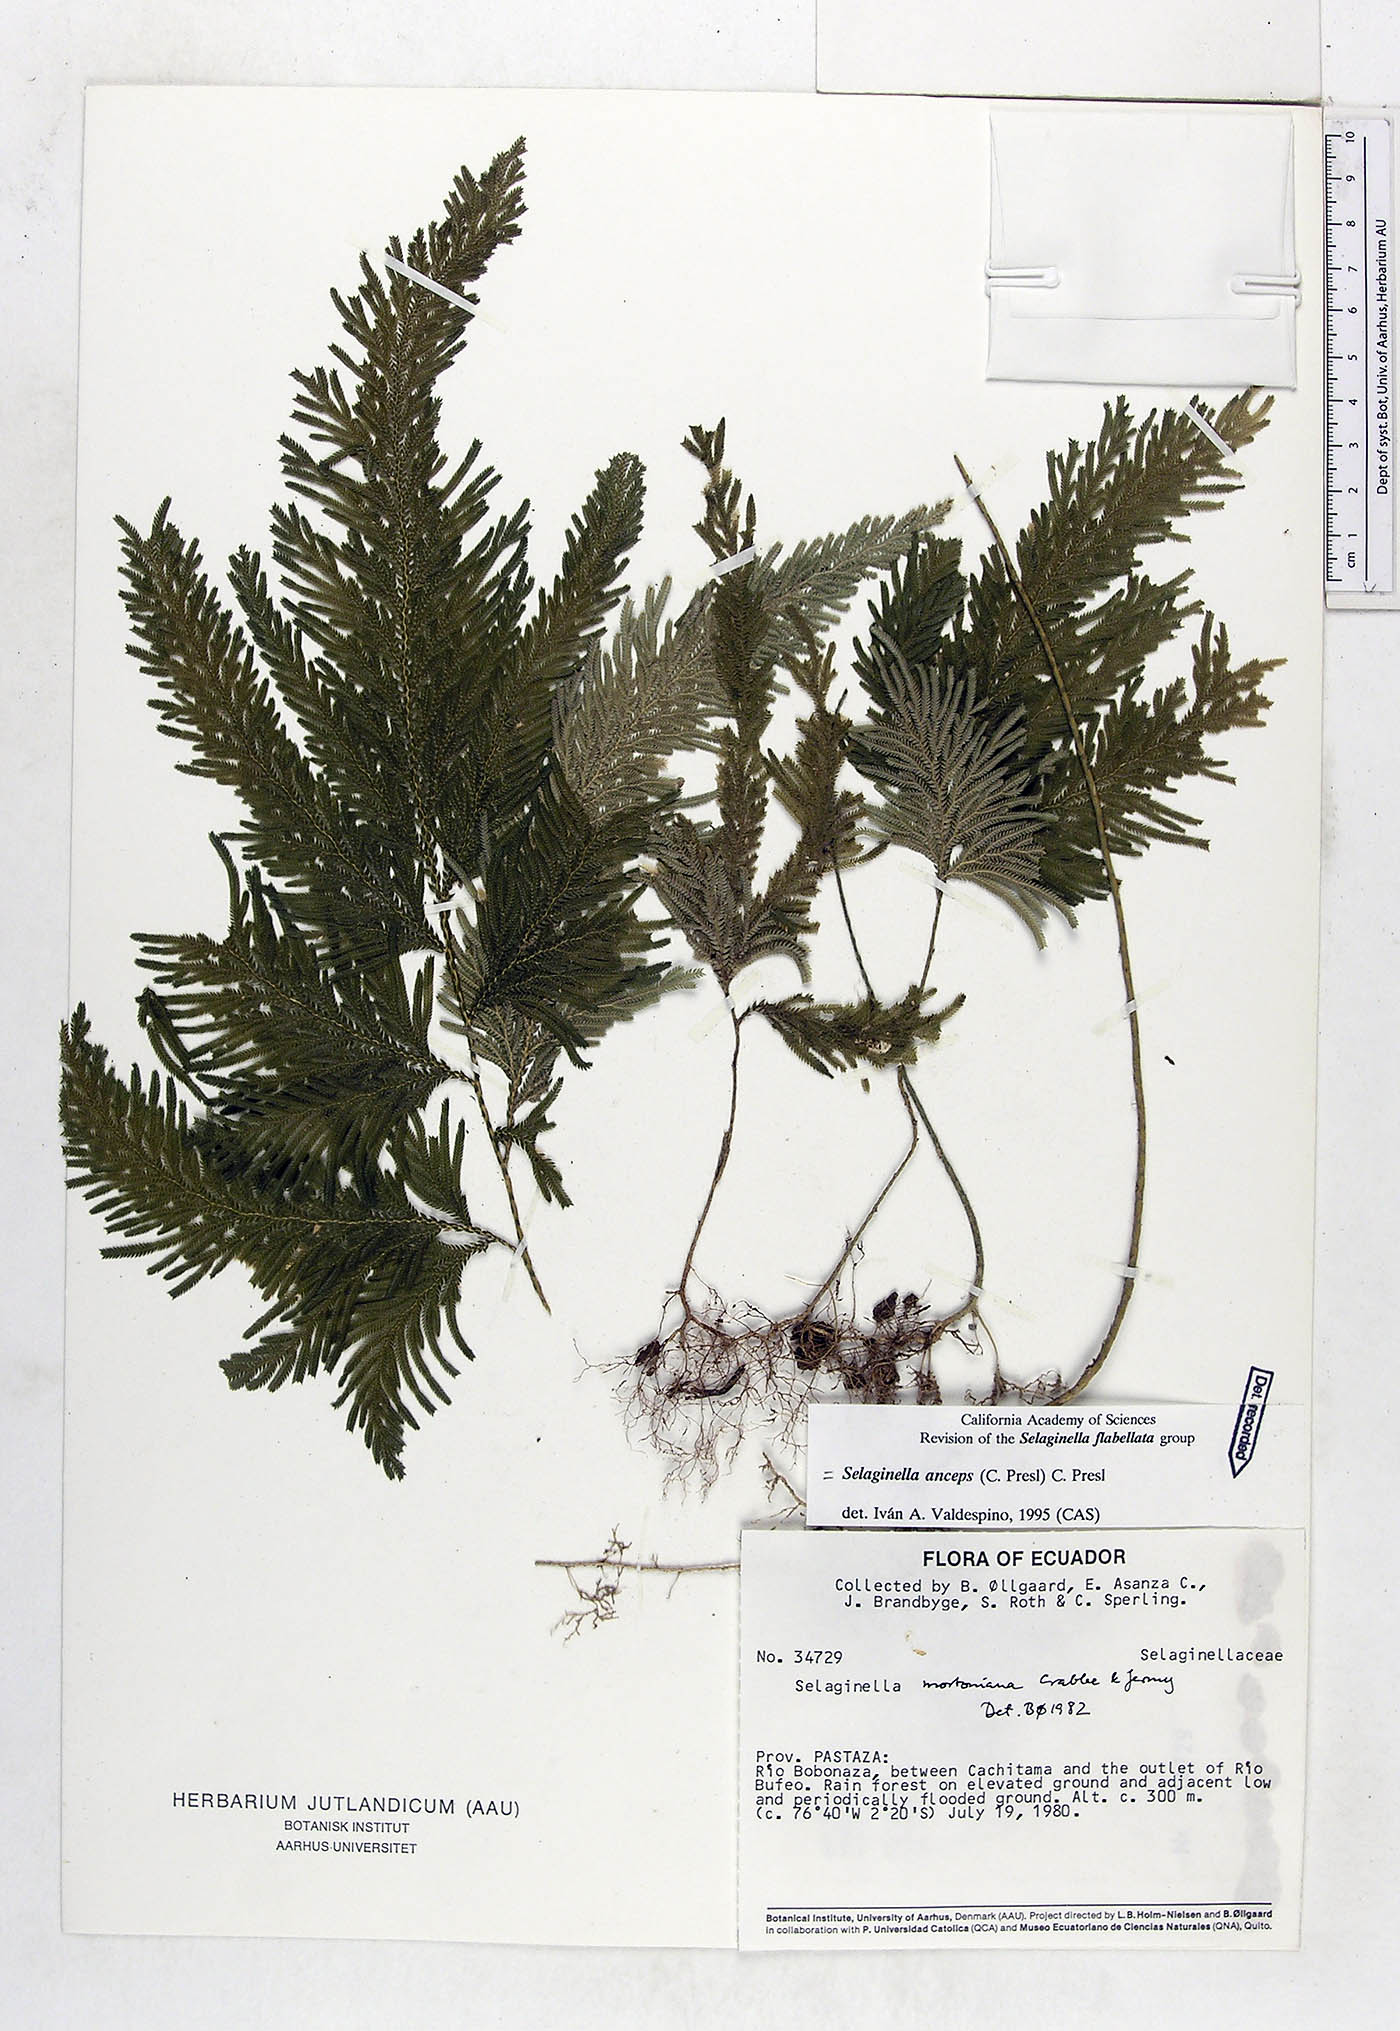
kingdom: Plantae
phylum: Tracheophyta
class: Lycopodiopsida
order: Selaginellales
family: Selaginellaceae
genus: Selaginella
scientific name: Selaginella anceps
